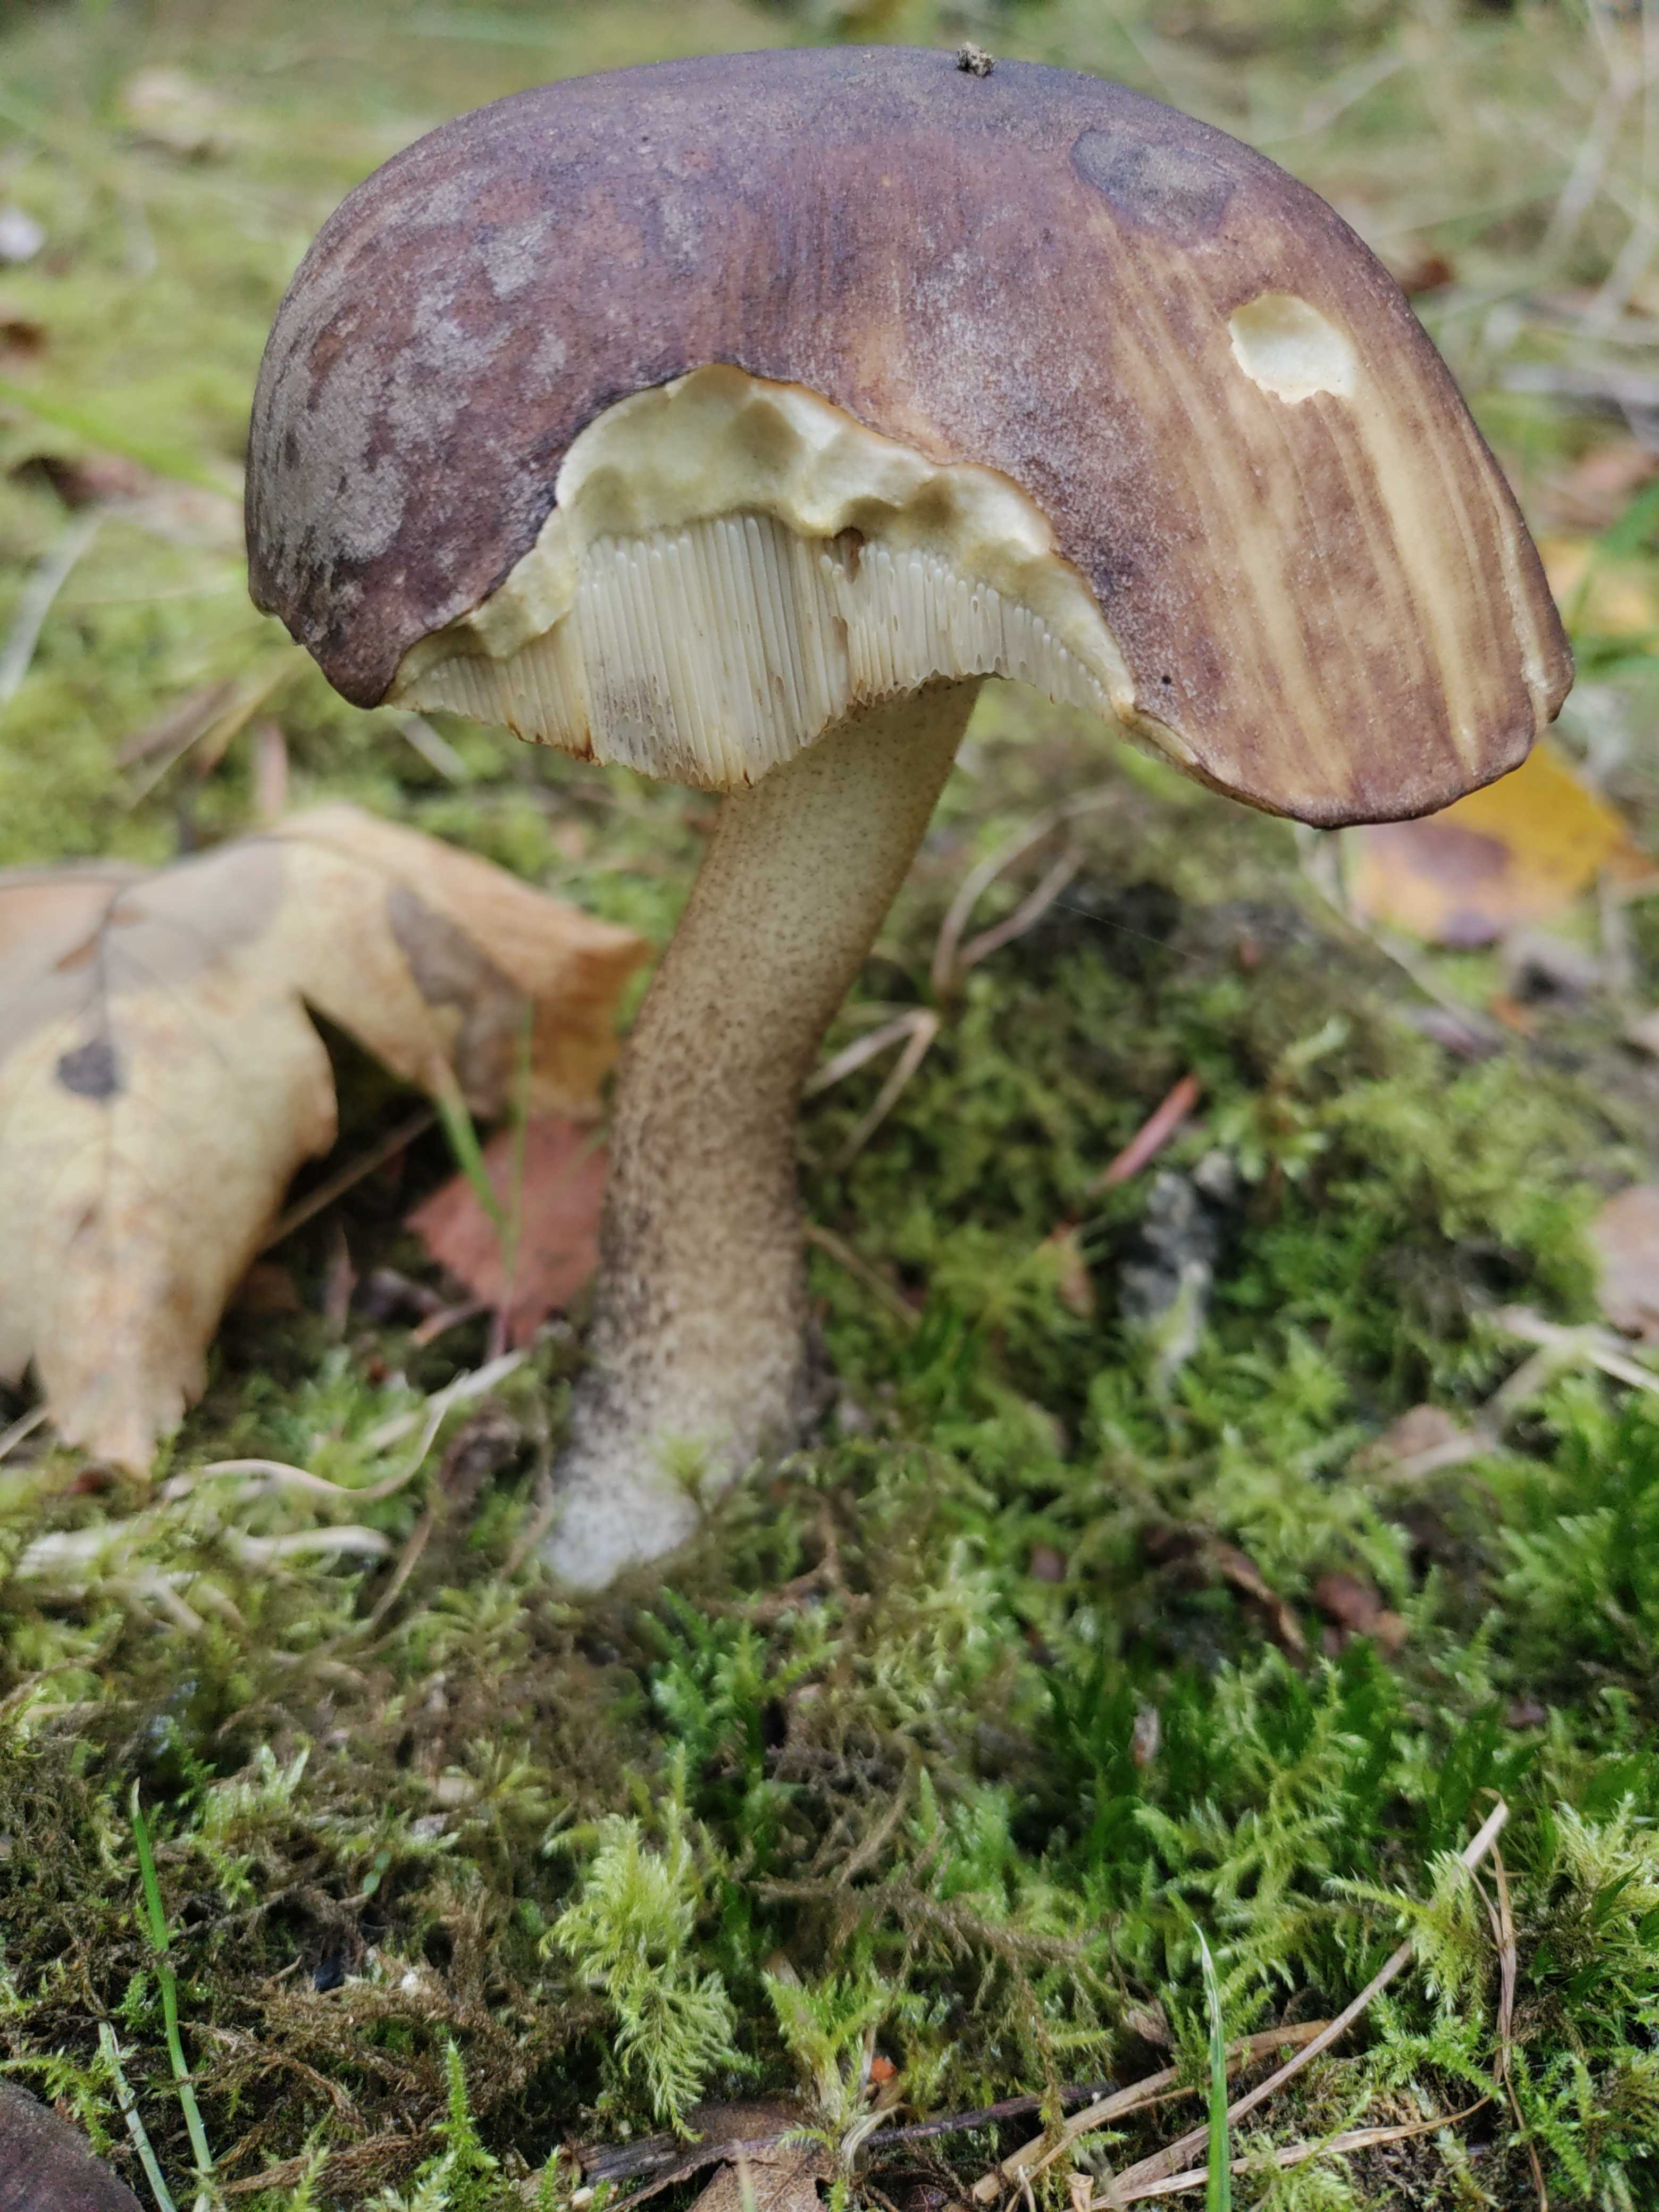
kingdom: Fungi
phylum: Basidiomycota
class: Agaricomycetes
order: Boletales
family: Boletaceae
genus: Leccinum
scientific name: Leccinum scabrum
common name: brun skælrørhat
